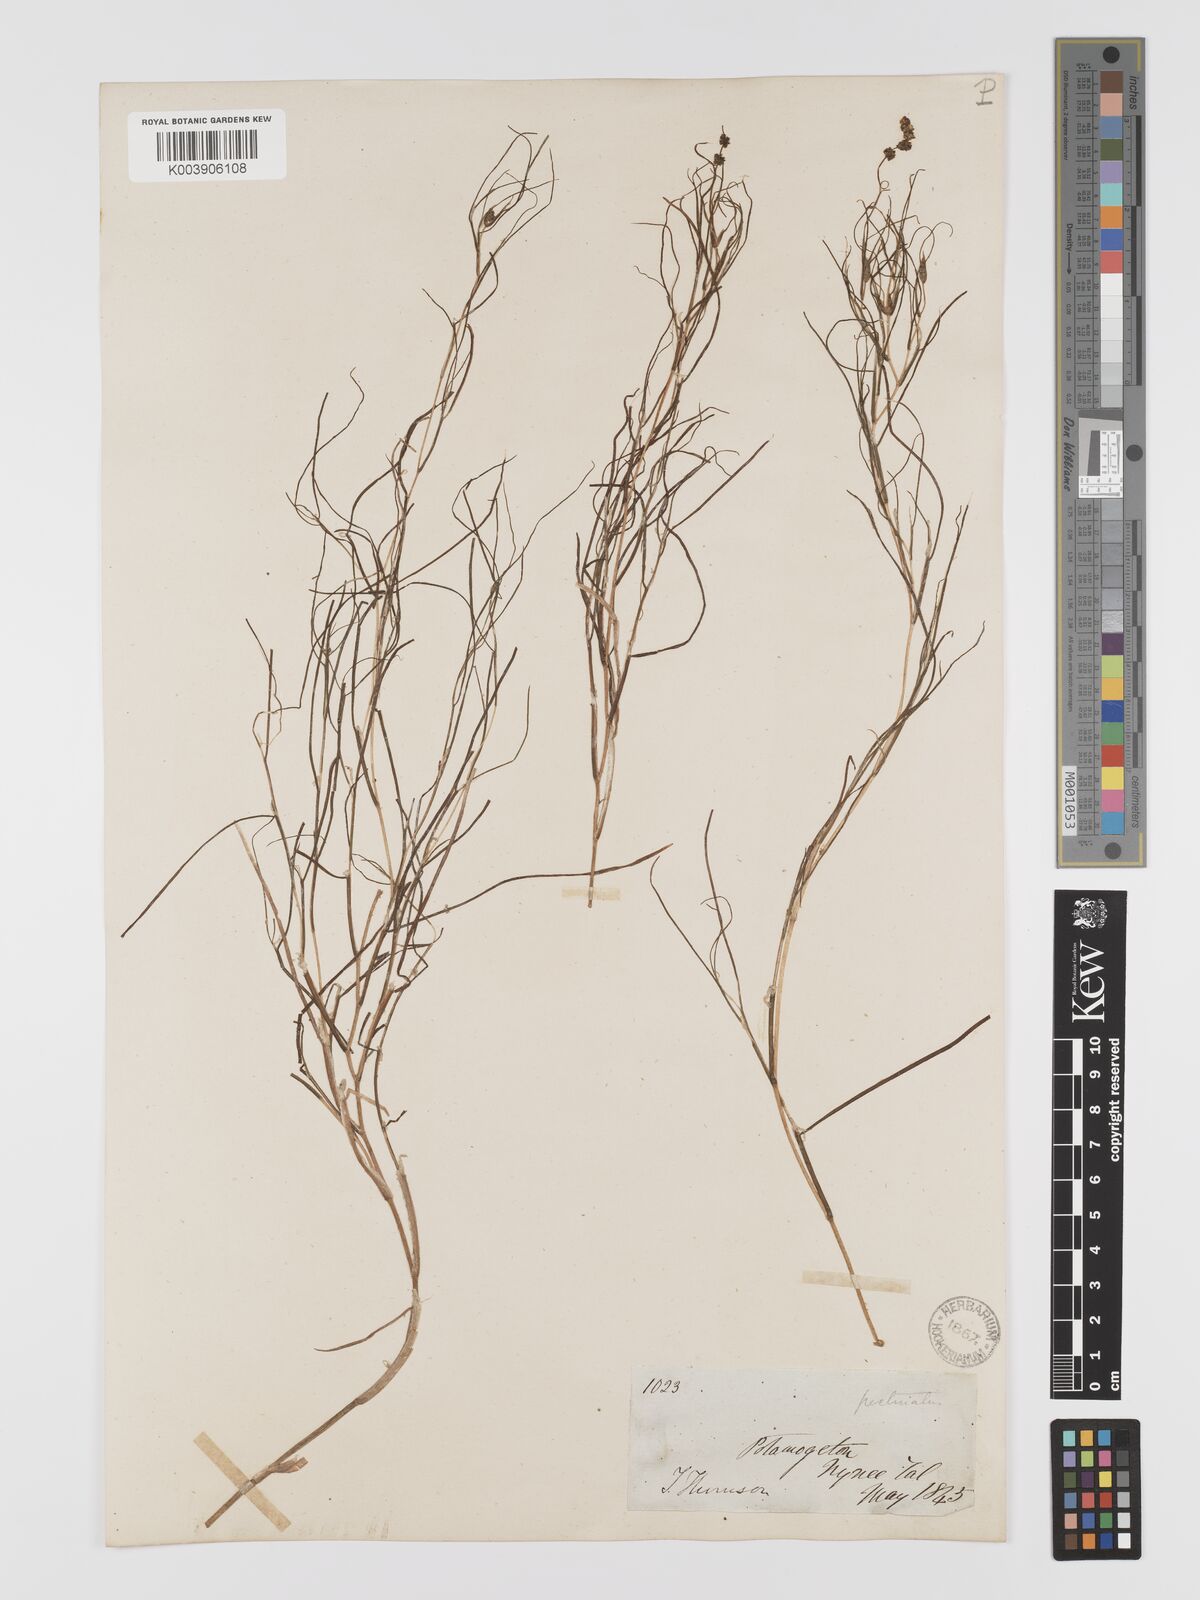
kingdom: Plantae
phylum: Tracheophyta
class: Liliopsida
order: Alismatales
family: Potamogetonaceae
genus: Stuckenia
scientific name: Stuckenia pectinata
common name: Sago pondweed
